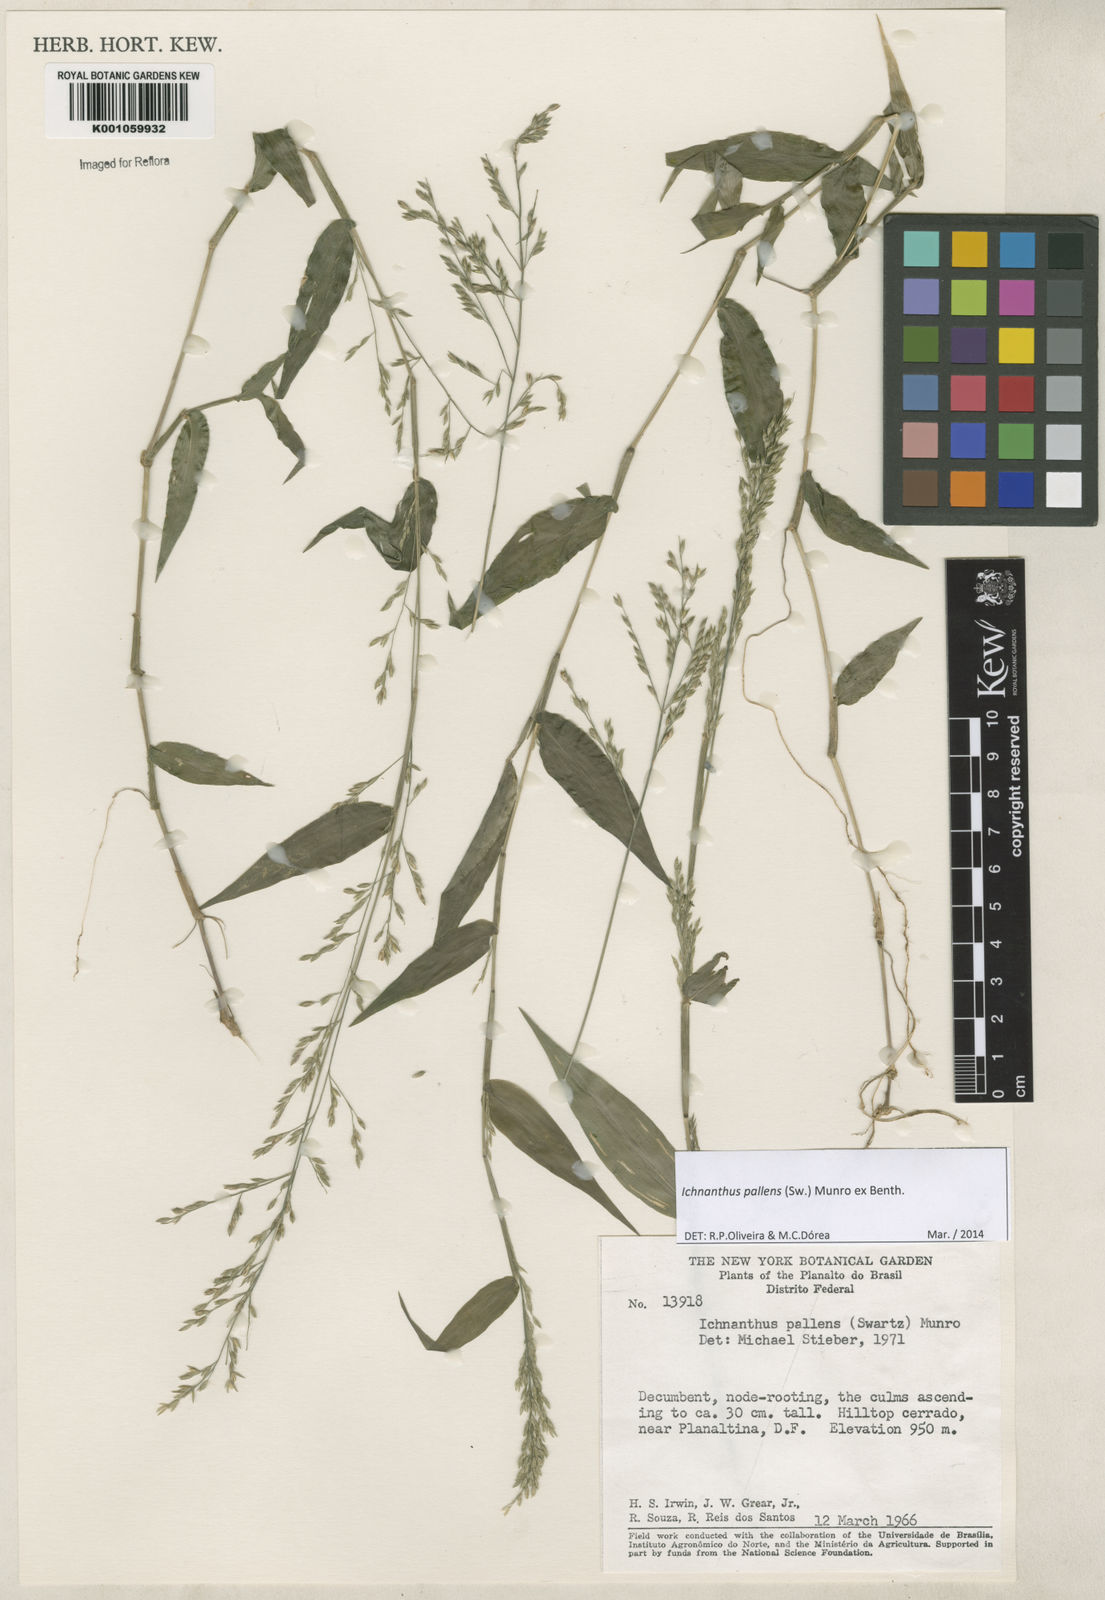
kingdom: Plantae
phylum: Tracheophyta
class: Liliopsida
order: Poales
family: Poaceae
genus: Ichnanthus
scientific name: Ichnanthus pallens
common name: Water grass
